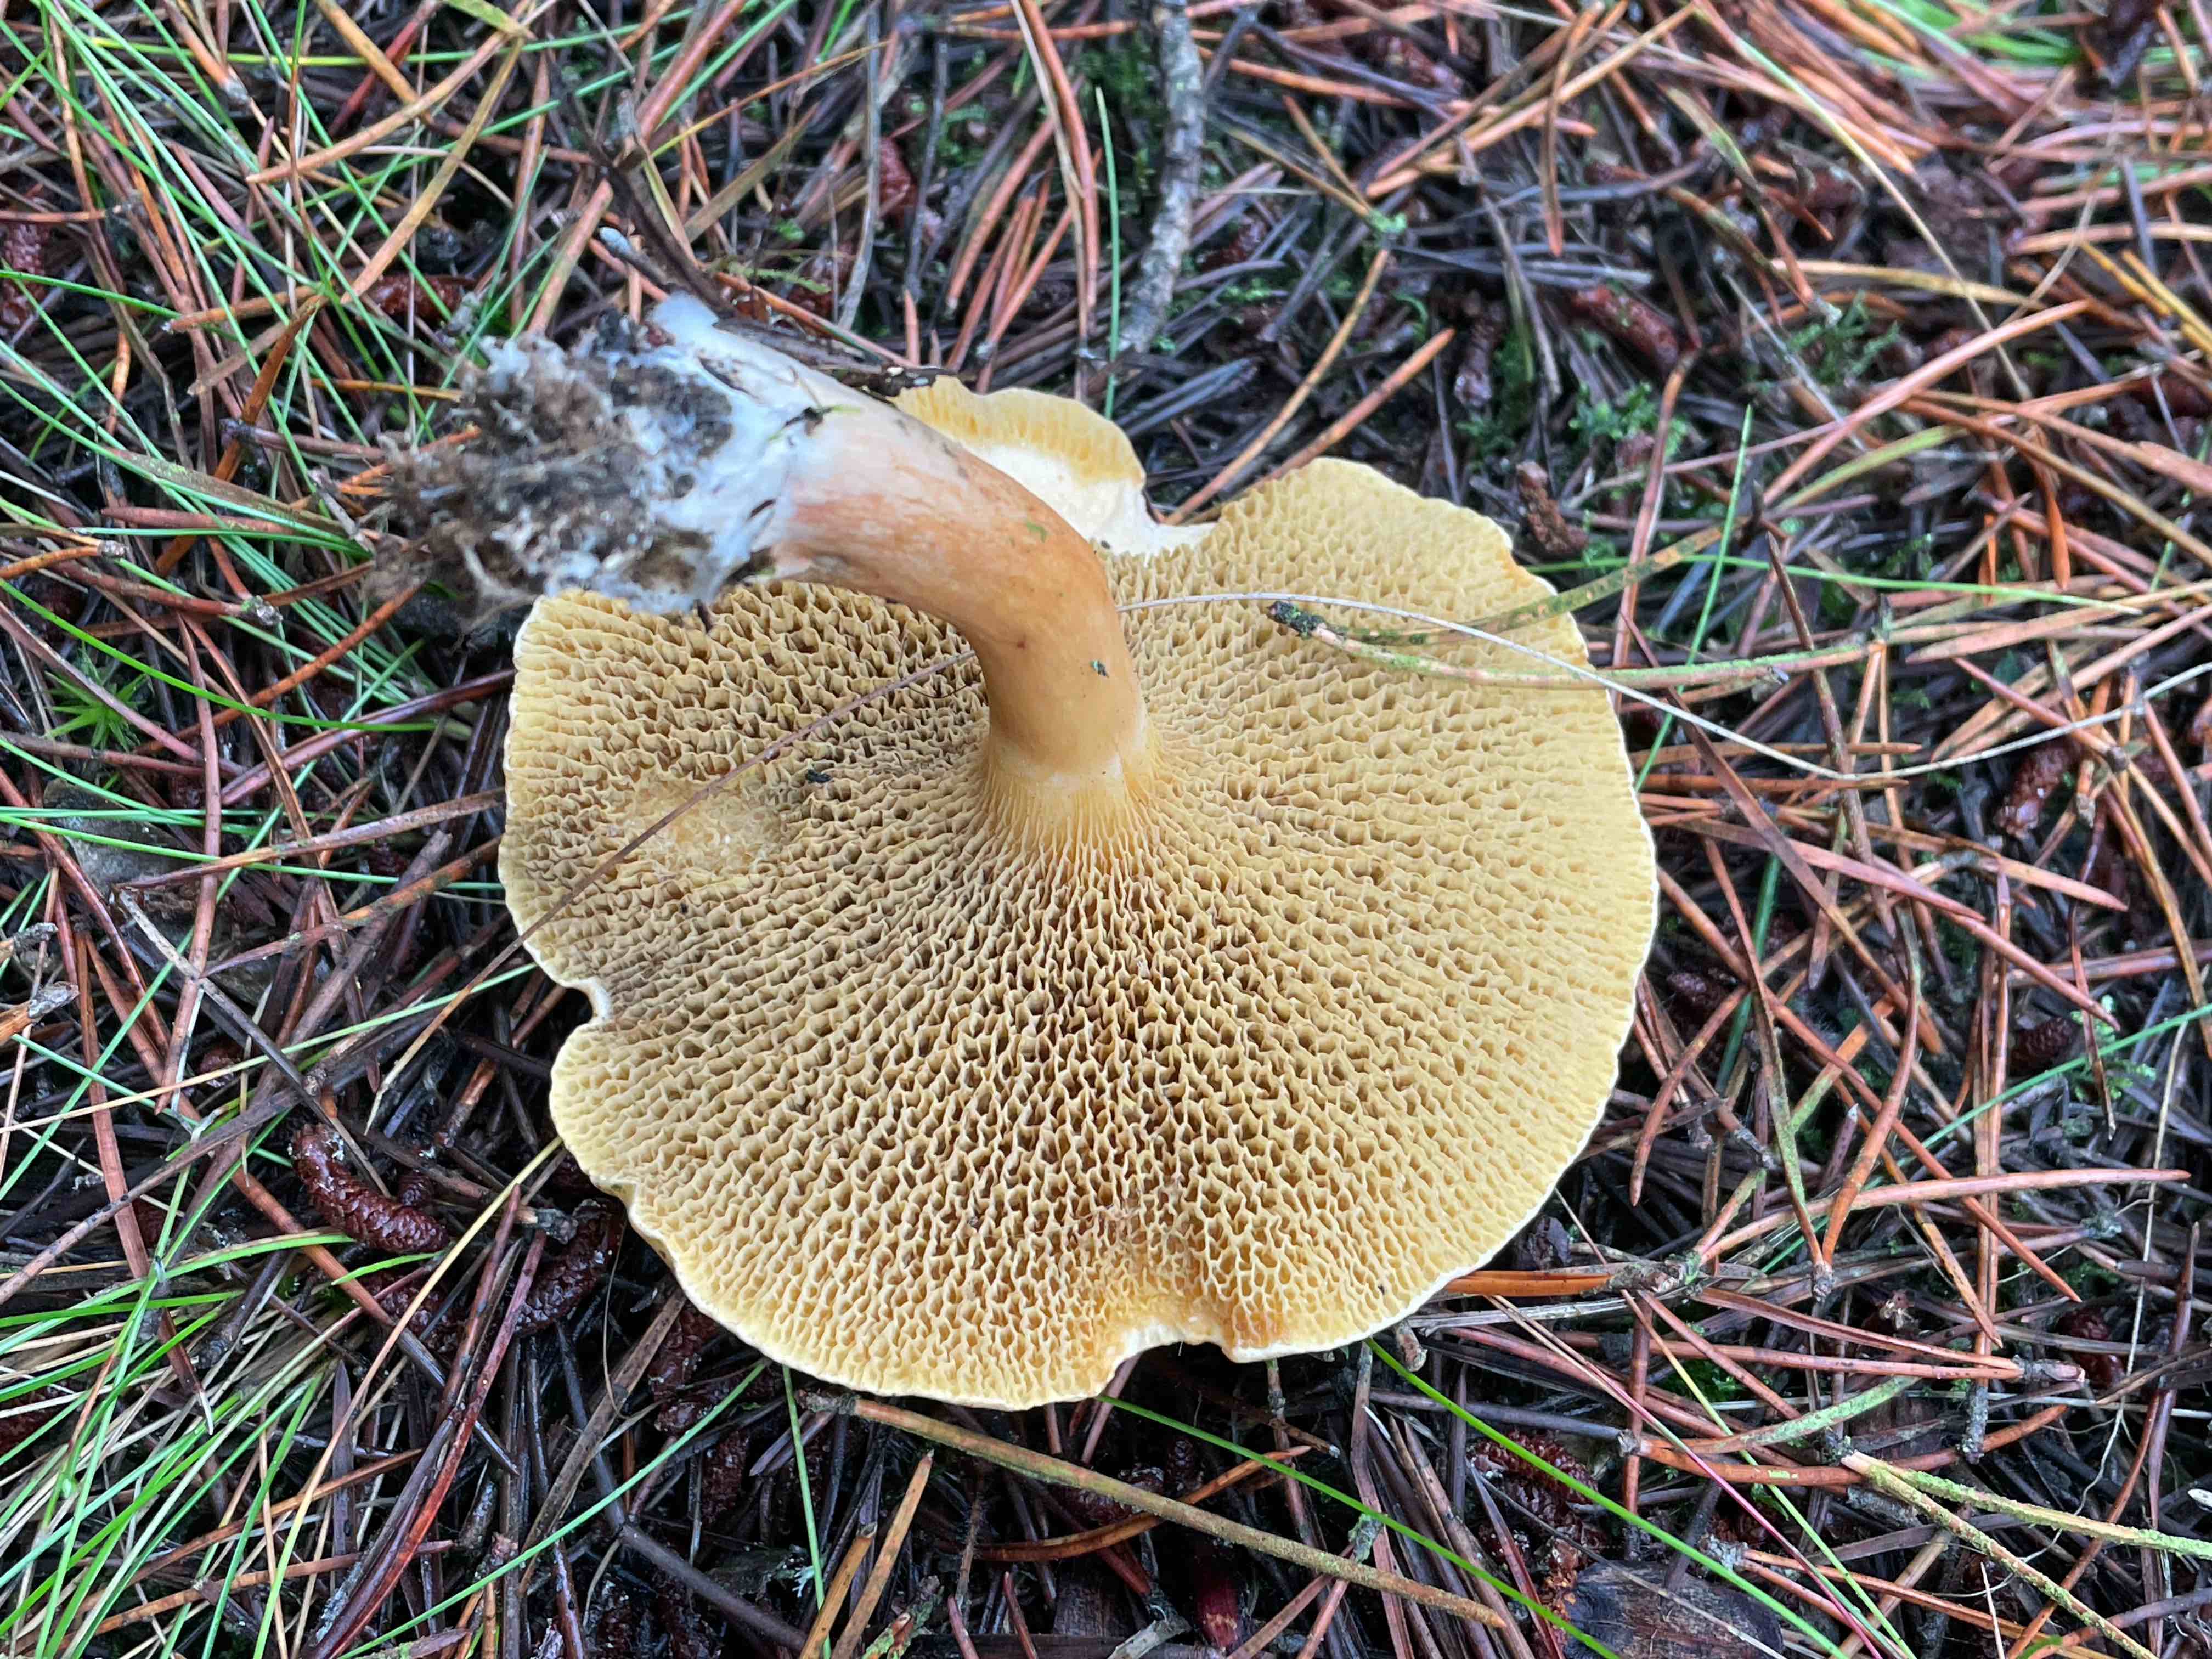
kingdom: Fungi
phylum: Basidiomycota
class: Agaricomycetes
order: Boletales
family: Suillaceae
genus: Suillus
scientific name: Suillus bovinus
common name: grovporet slimrørhat
